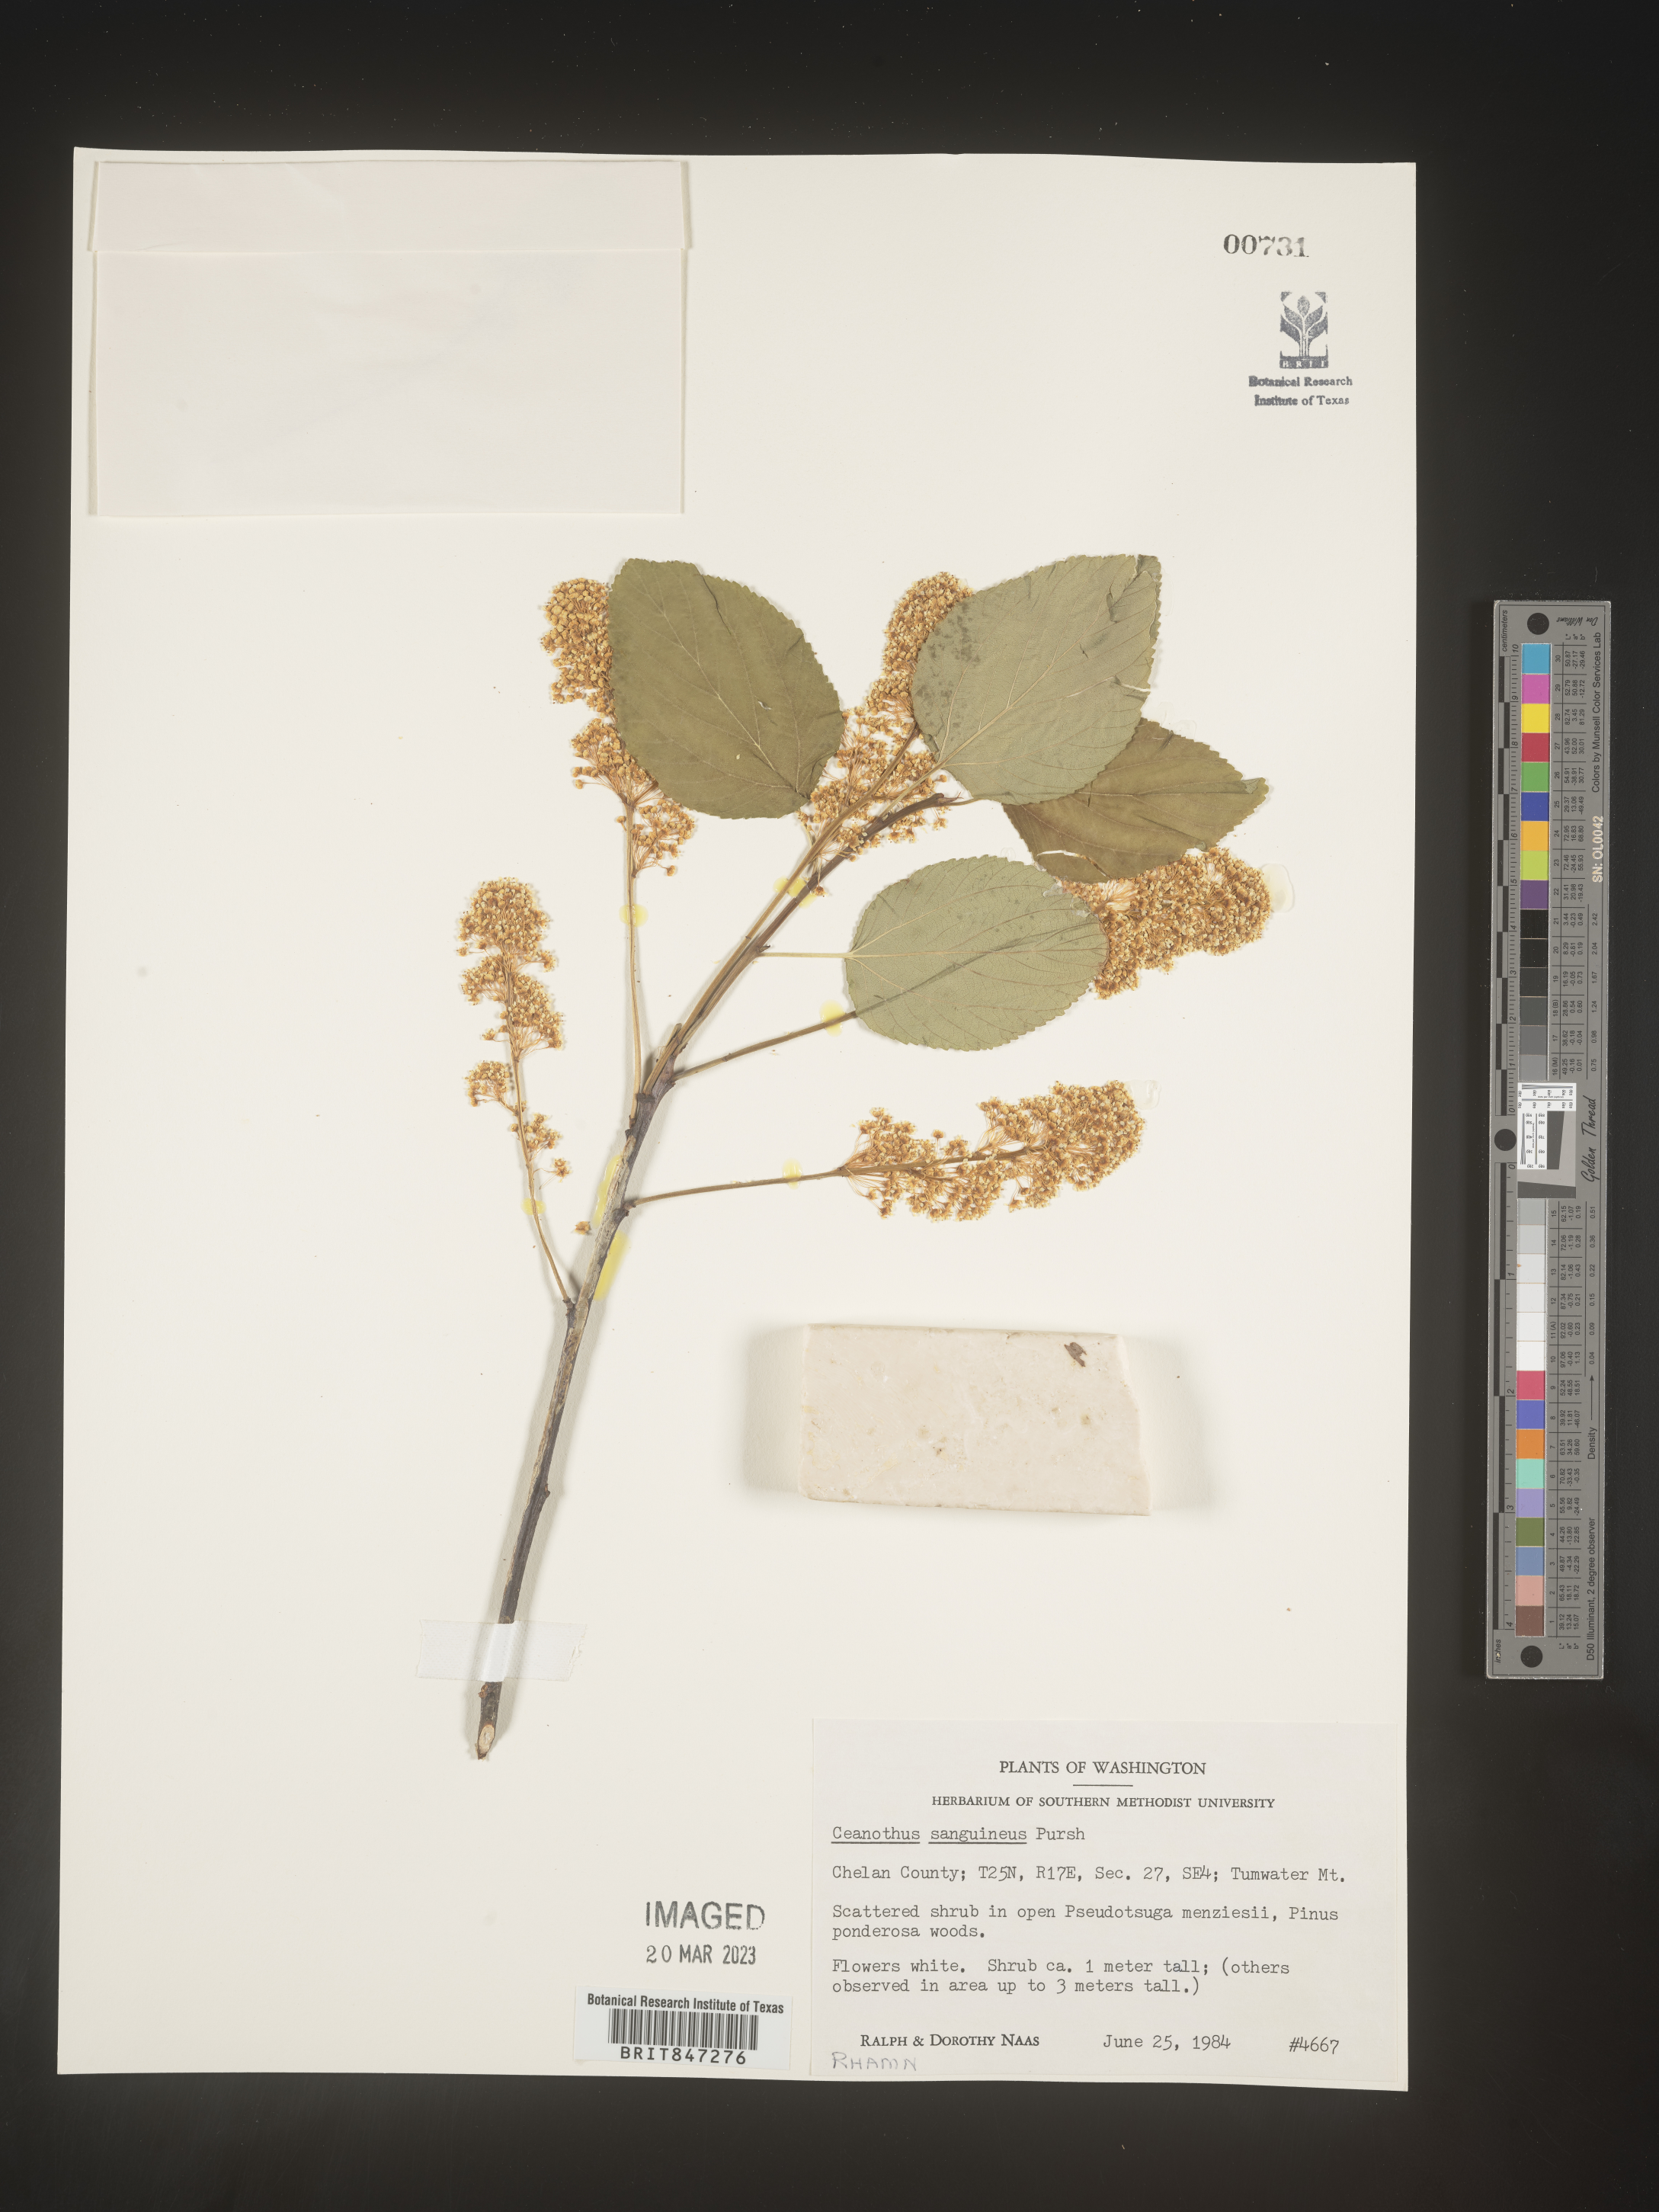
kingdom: Plantae
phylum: Tracheophyta
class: Magnoliopsida
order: Rosales
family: Rhamnaceae
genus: Ceanothus
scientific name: Ceanothus
